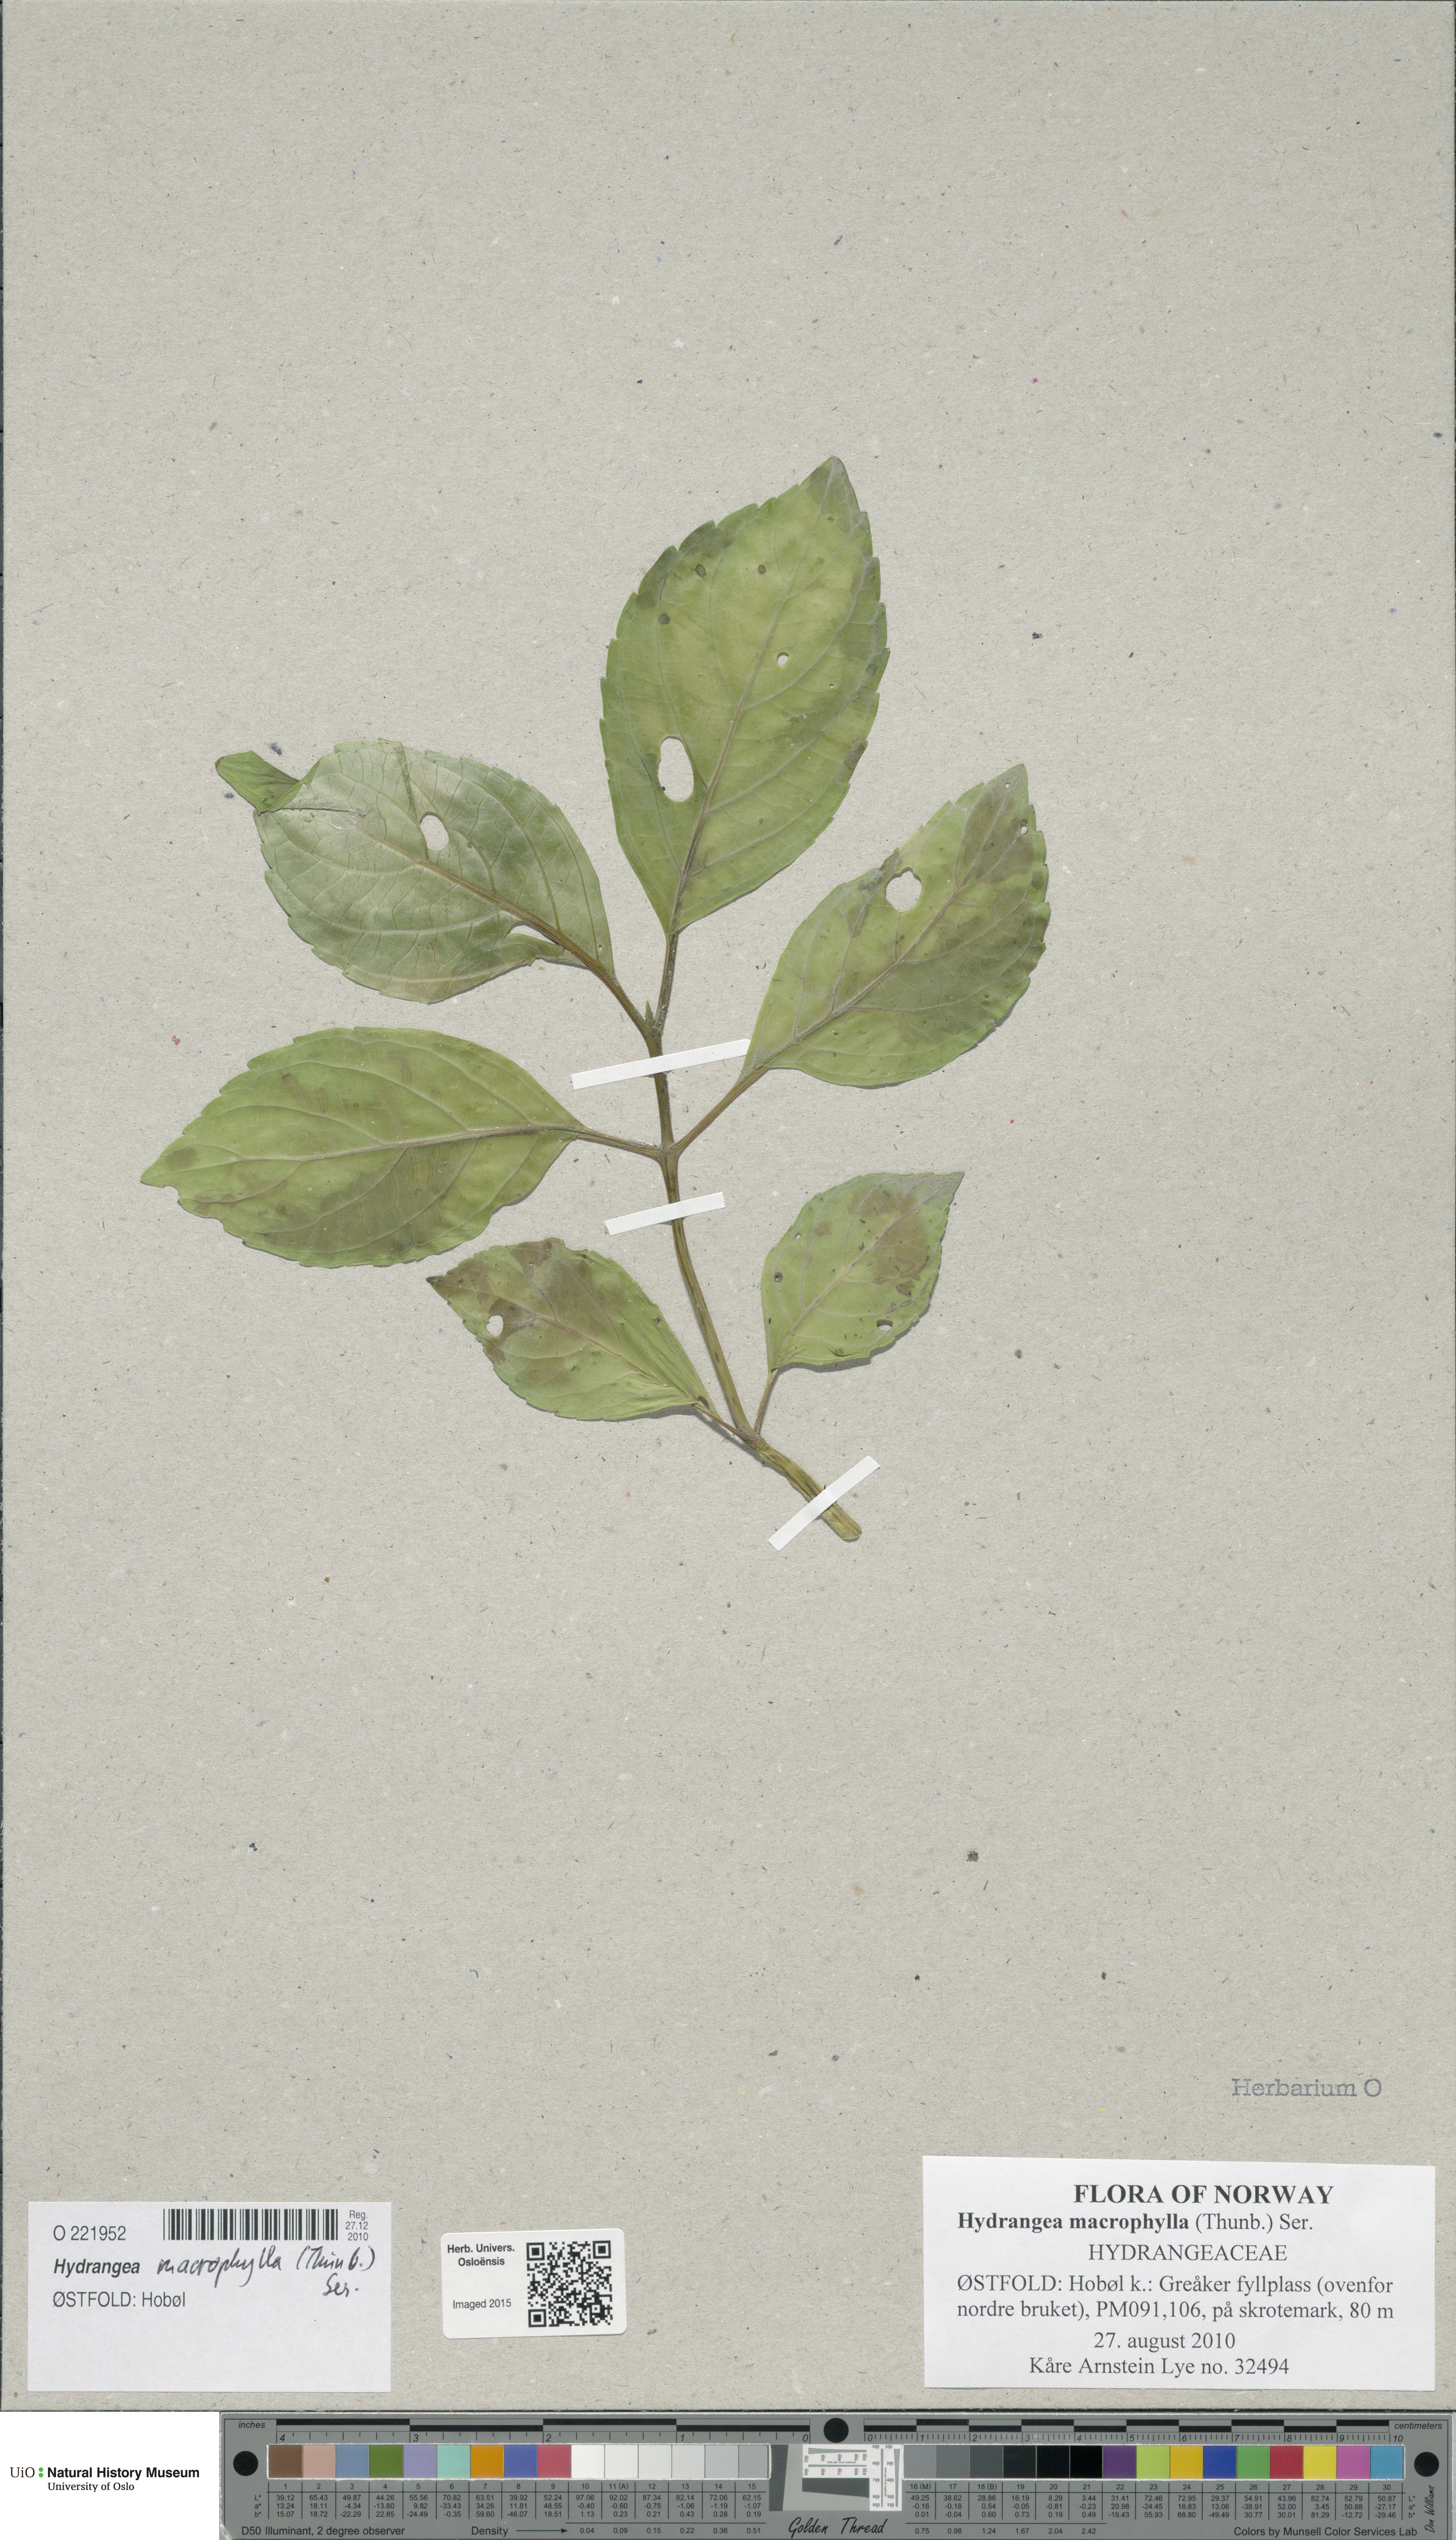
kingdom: Plantae
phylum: Tracheophyta
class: Magnoliopsida
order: Ericales
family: Ericaceae
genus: Rhododendron
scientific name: Rhododendron
